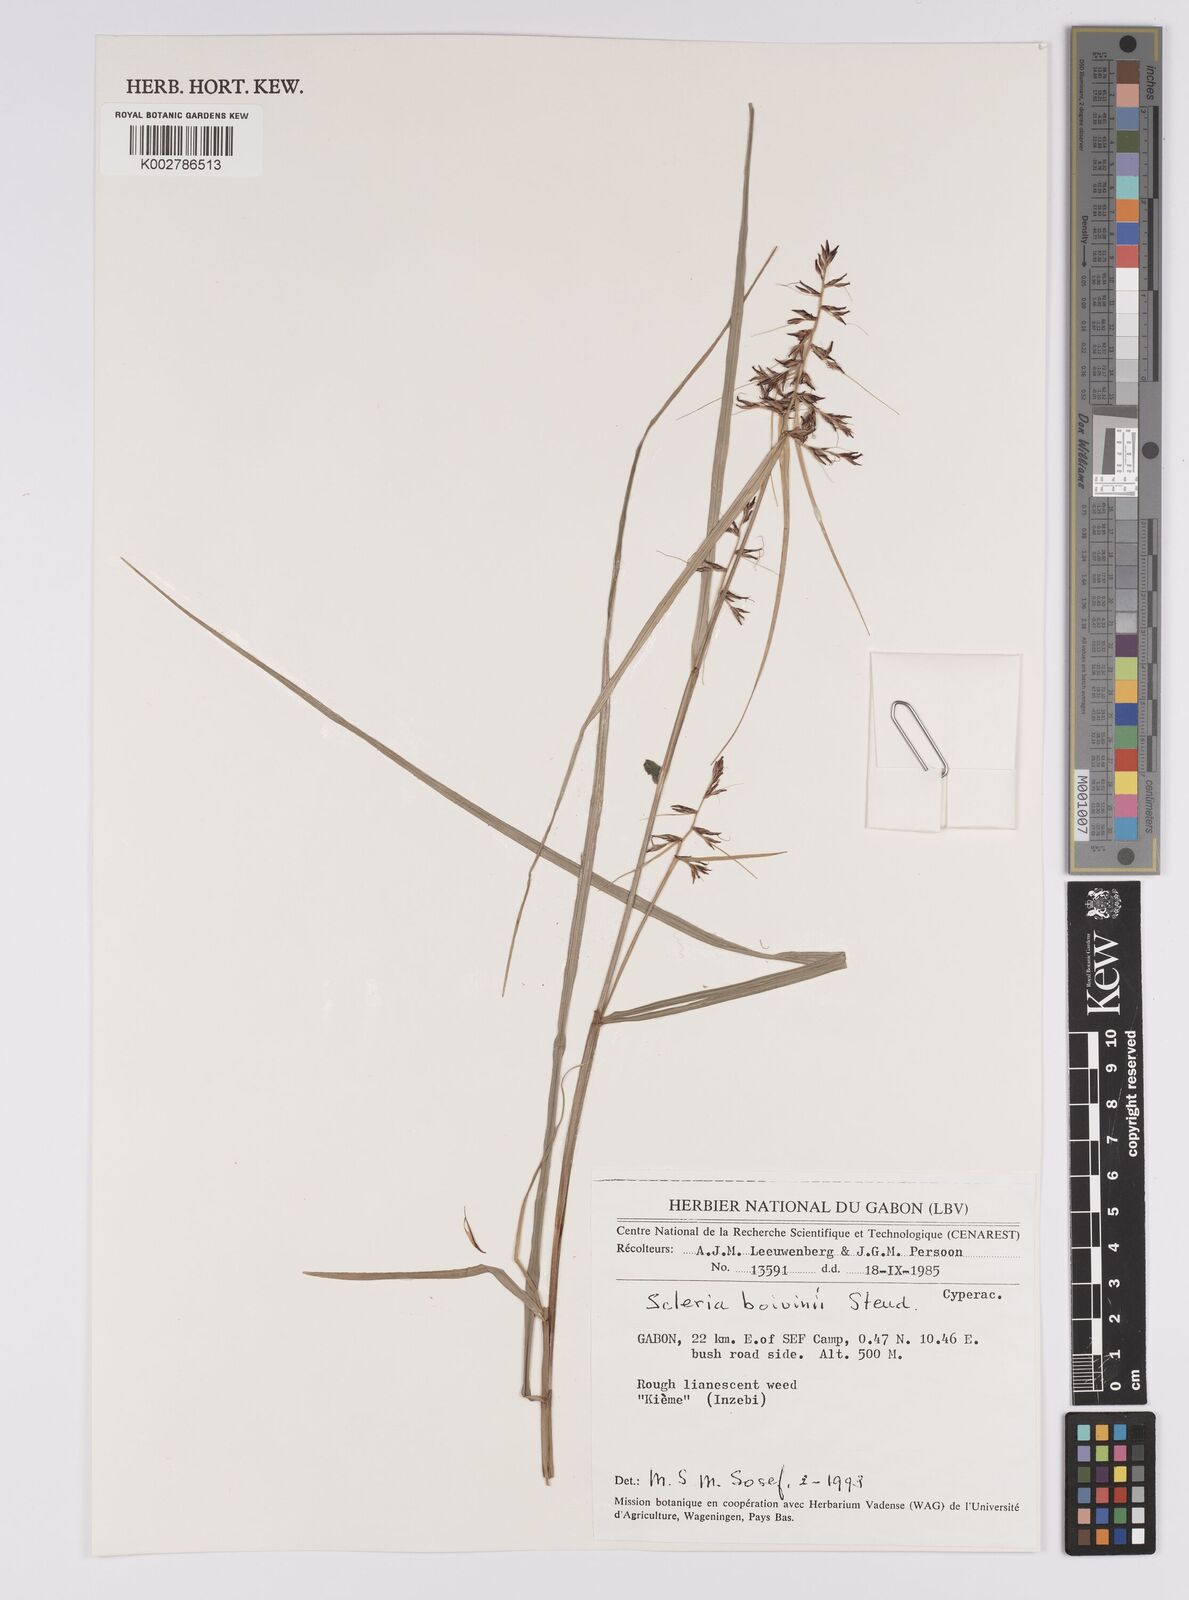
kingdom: Plantae
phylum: Tracheophyta
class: Liliopsida
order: Poales
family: Cyperaceae
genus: Scleria
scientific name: Scleria boivinii
